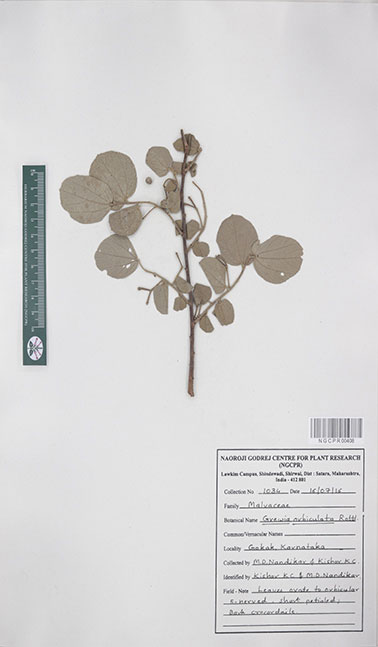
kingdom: Plantae
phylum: Tracheophyta
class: Magnoliopsida
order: Malvales
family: Malvaceae
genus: Grewia
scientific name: Grewia orbiculata
